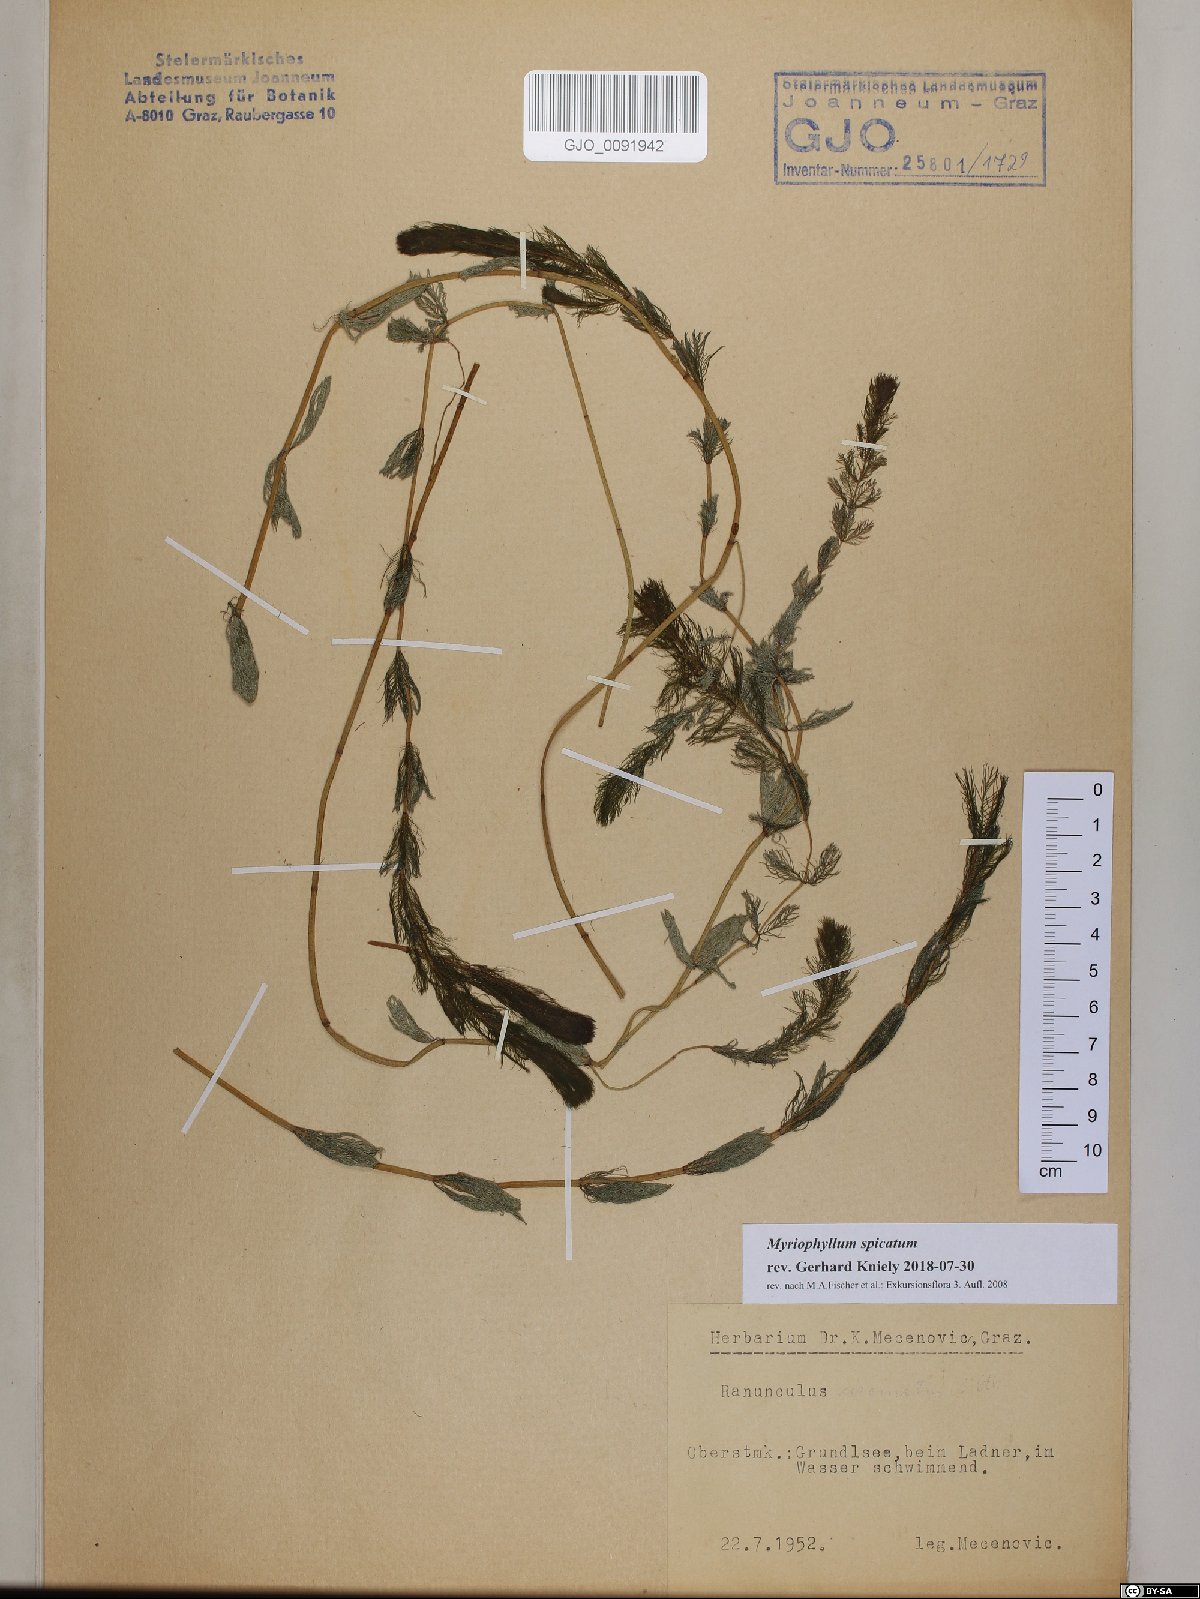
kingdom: Plantae
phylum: Tracheophyta
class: Magnoliopsida
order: Saxifragales
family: Haloragaceae
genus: Myriophyllum
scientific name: Myriophyllum spicatum
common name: Spiked water-milfoil
